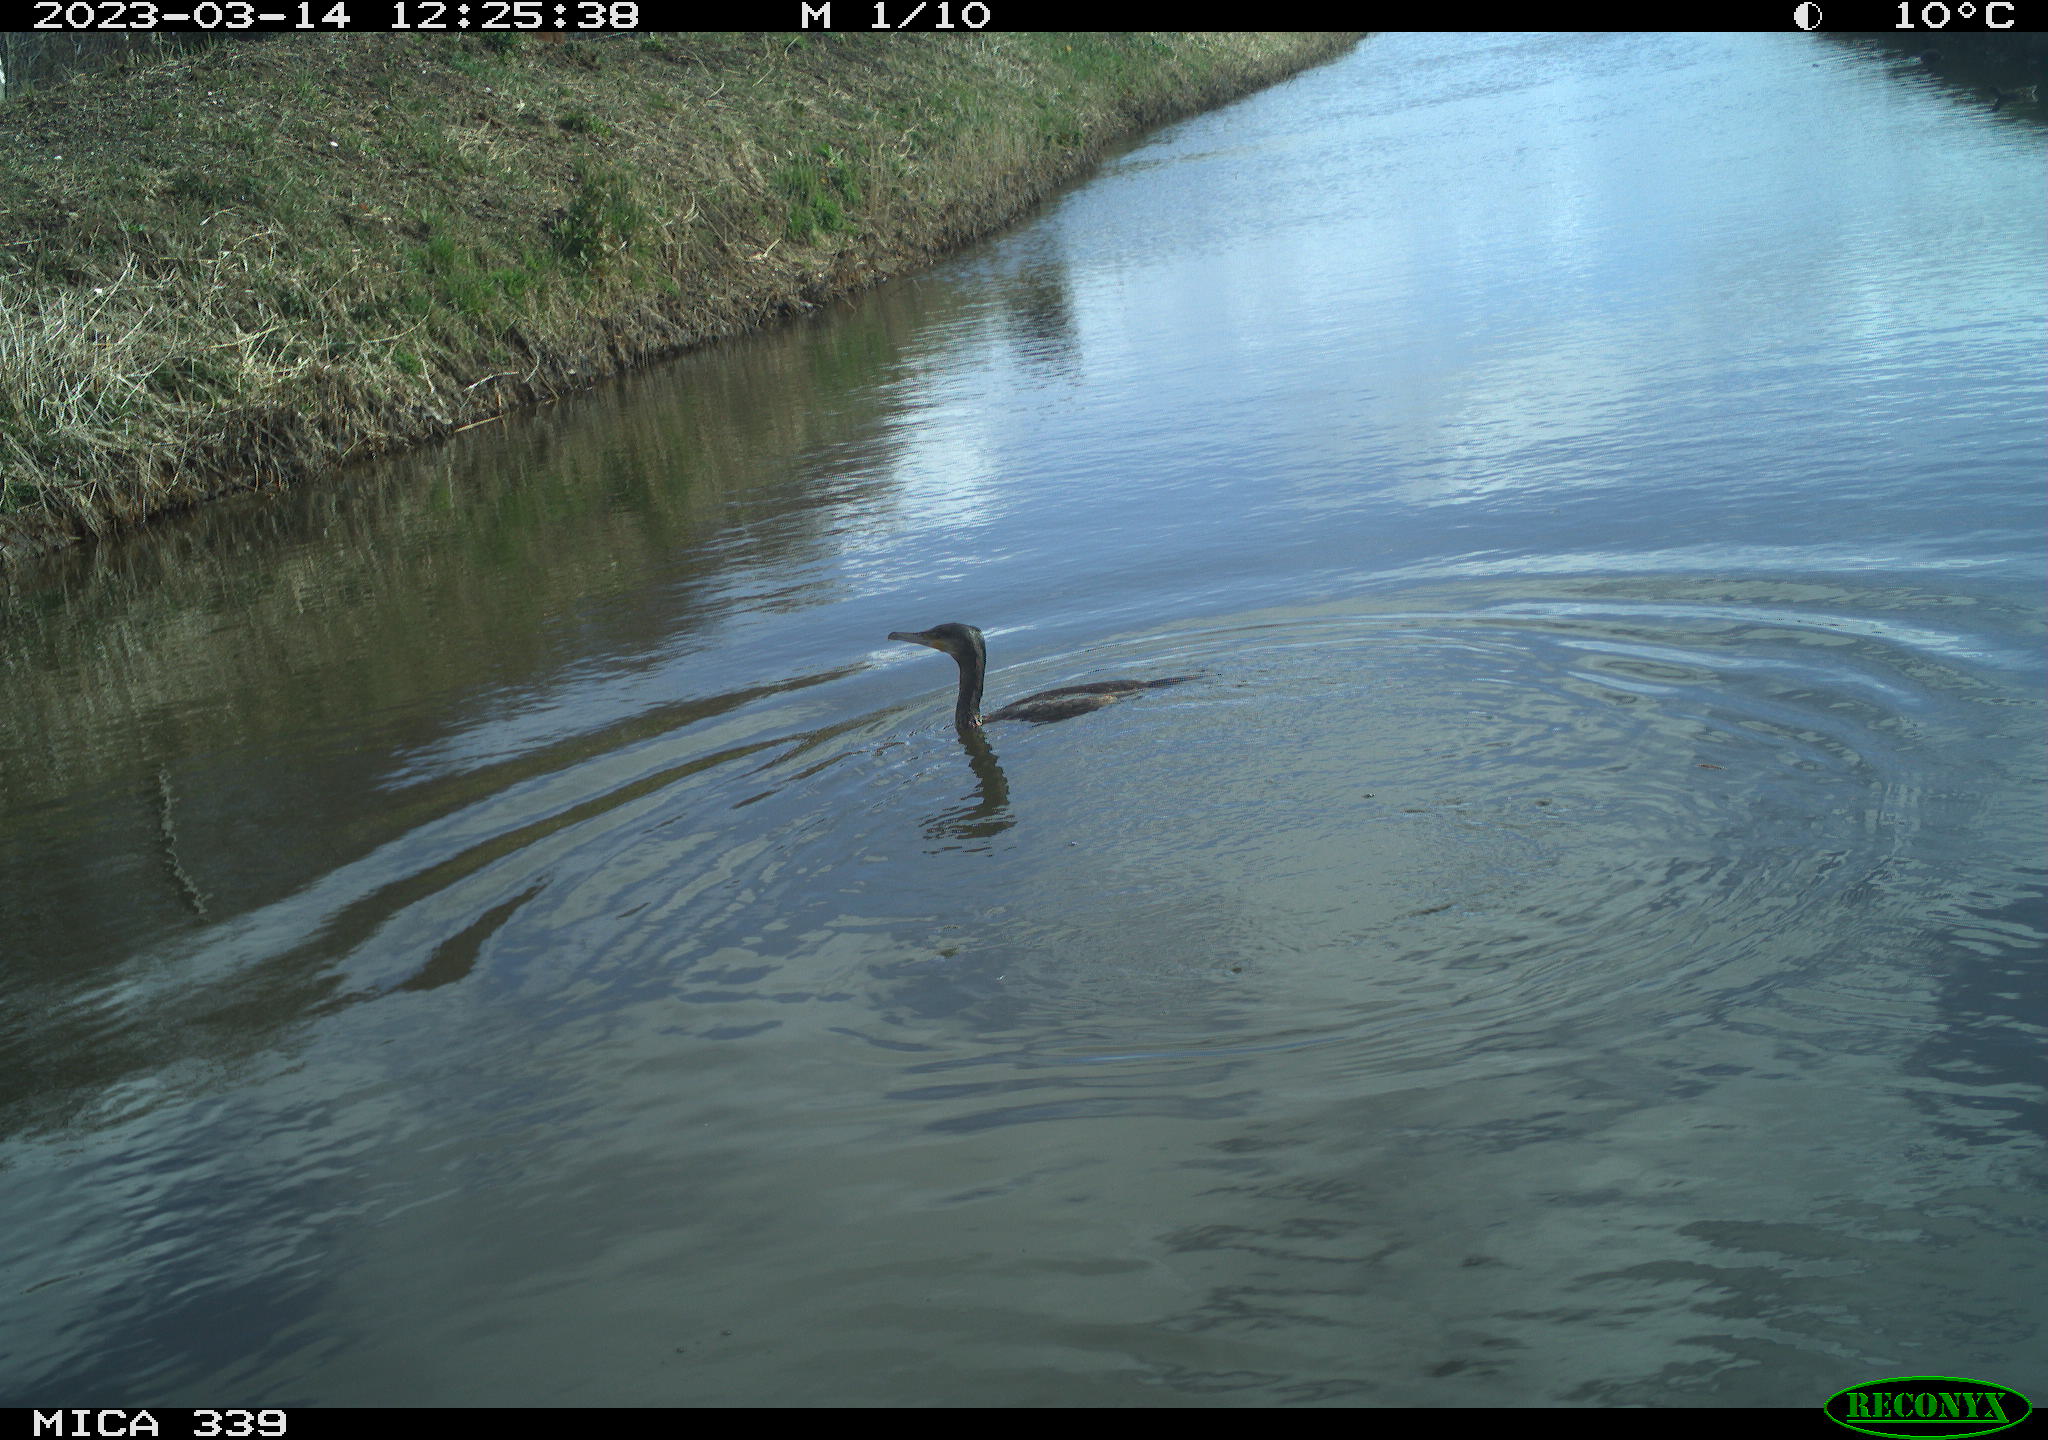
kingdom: Animalia
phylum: Chordata
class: Aves
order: Suliformes
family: Phalacrocoracidae
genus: Phalacrocorax
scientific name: Phalacrocorax carbo
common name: Great cormorant
